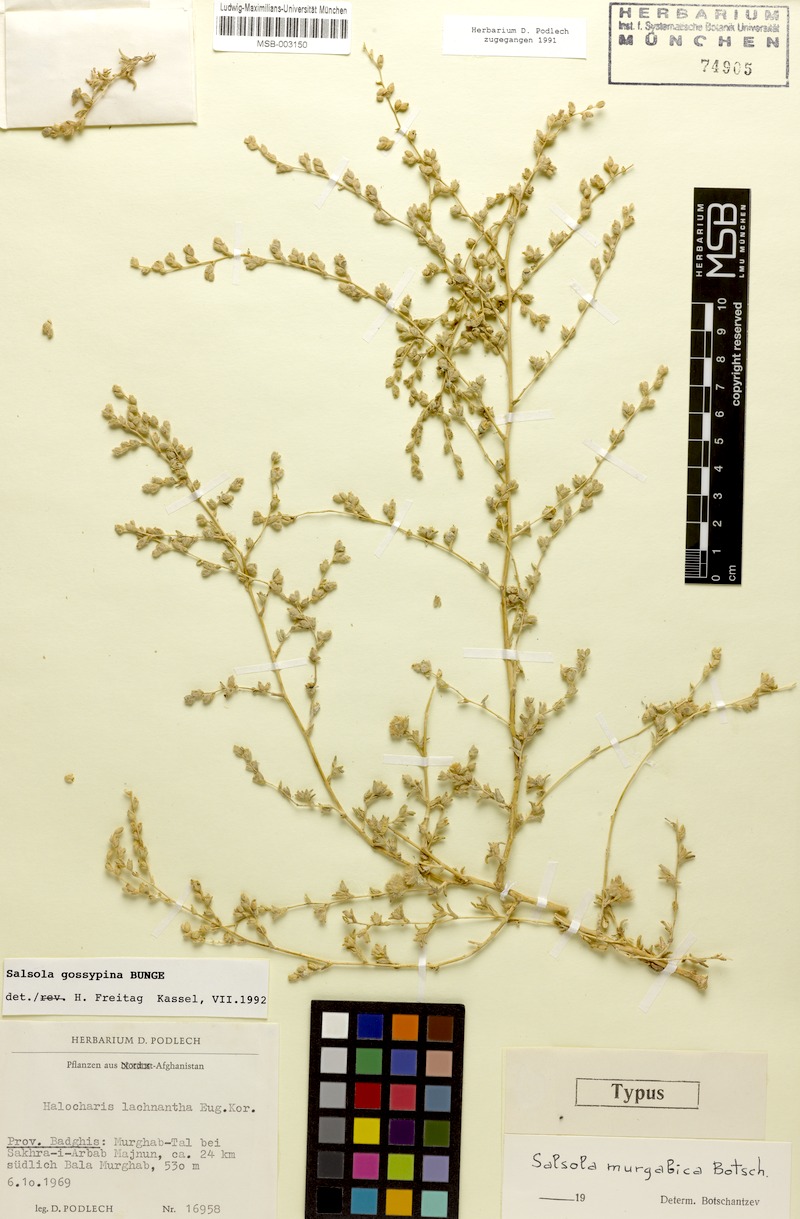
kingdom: Plantae
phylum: Tracheophyta
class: Magnoliopsida
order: Caryophyllales
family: Amaranthaceae
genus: Kaviria
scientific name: Kaviria gossypina
